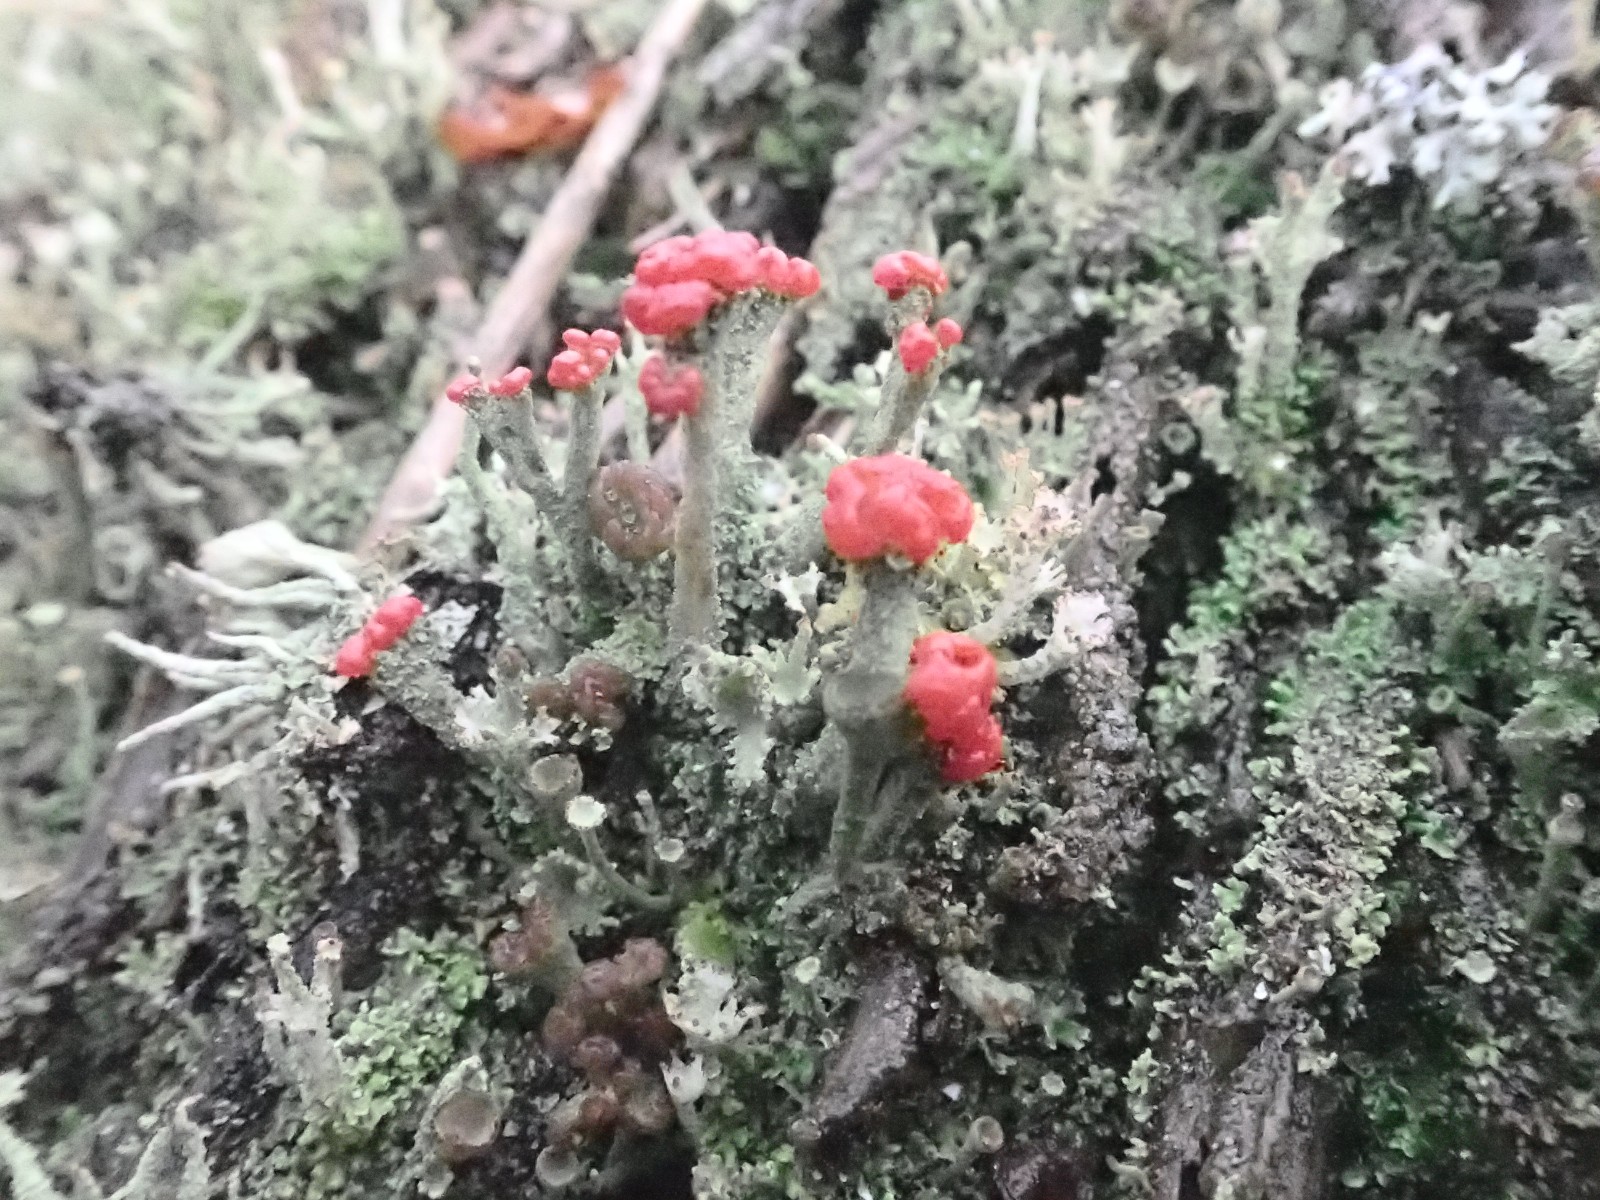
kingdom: Fungi
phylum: Ascomycota
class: Lecanoromycetes
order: Lecanorales
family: Cladoniaceae
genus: Cladonia
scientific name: Cladonia floerkeana
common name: lakrød bægerlav
